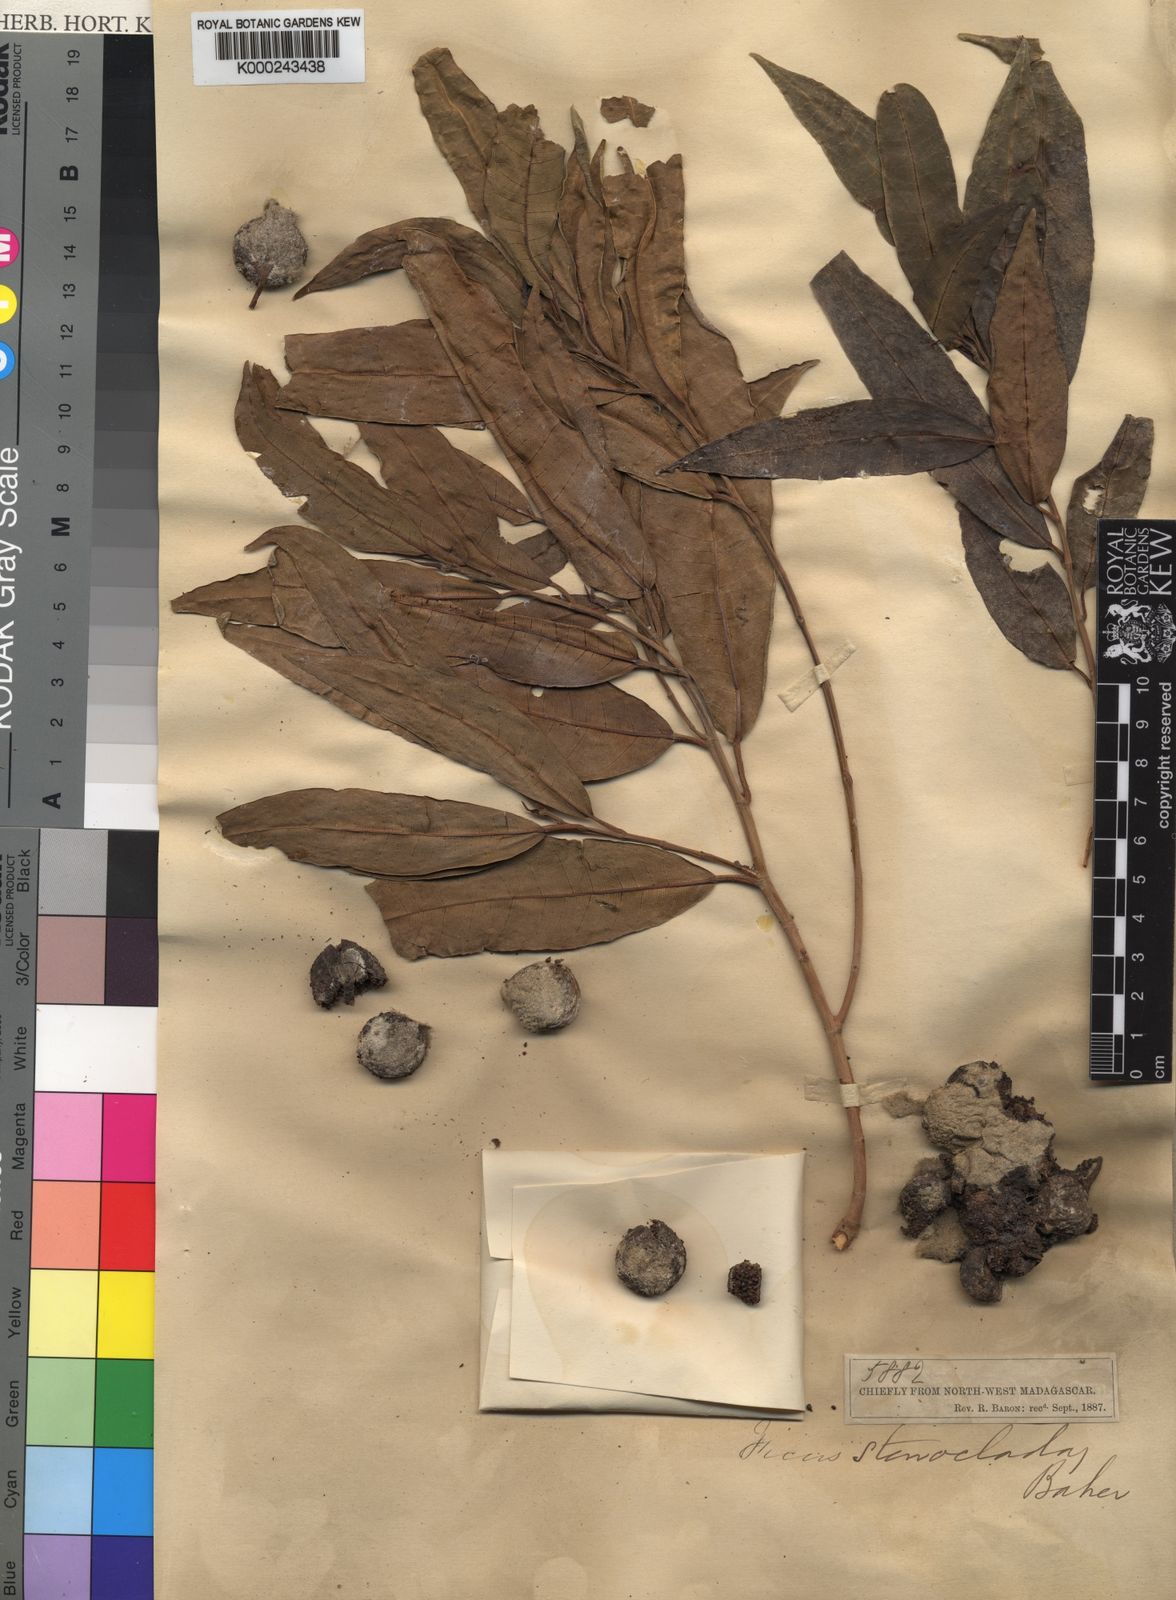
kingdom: Plantae
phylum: Tracheophyta
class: Magnoliopsida
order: Rosales
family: Moraceae
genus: Ficus
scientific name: Ficus botryoides
